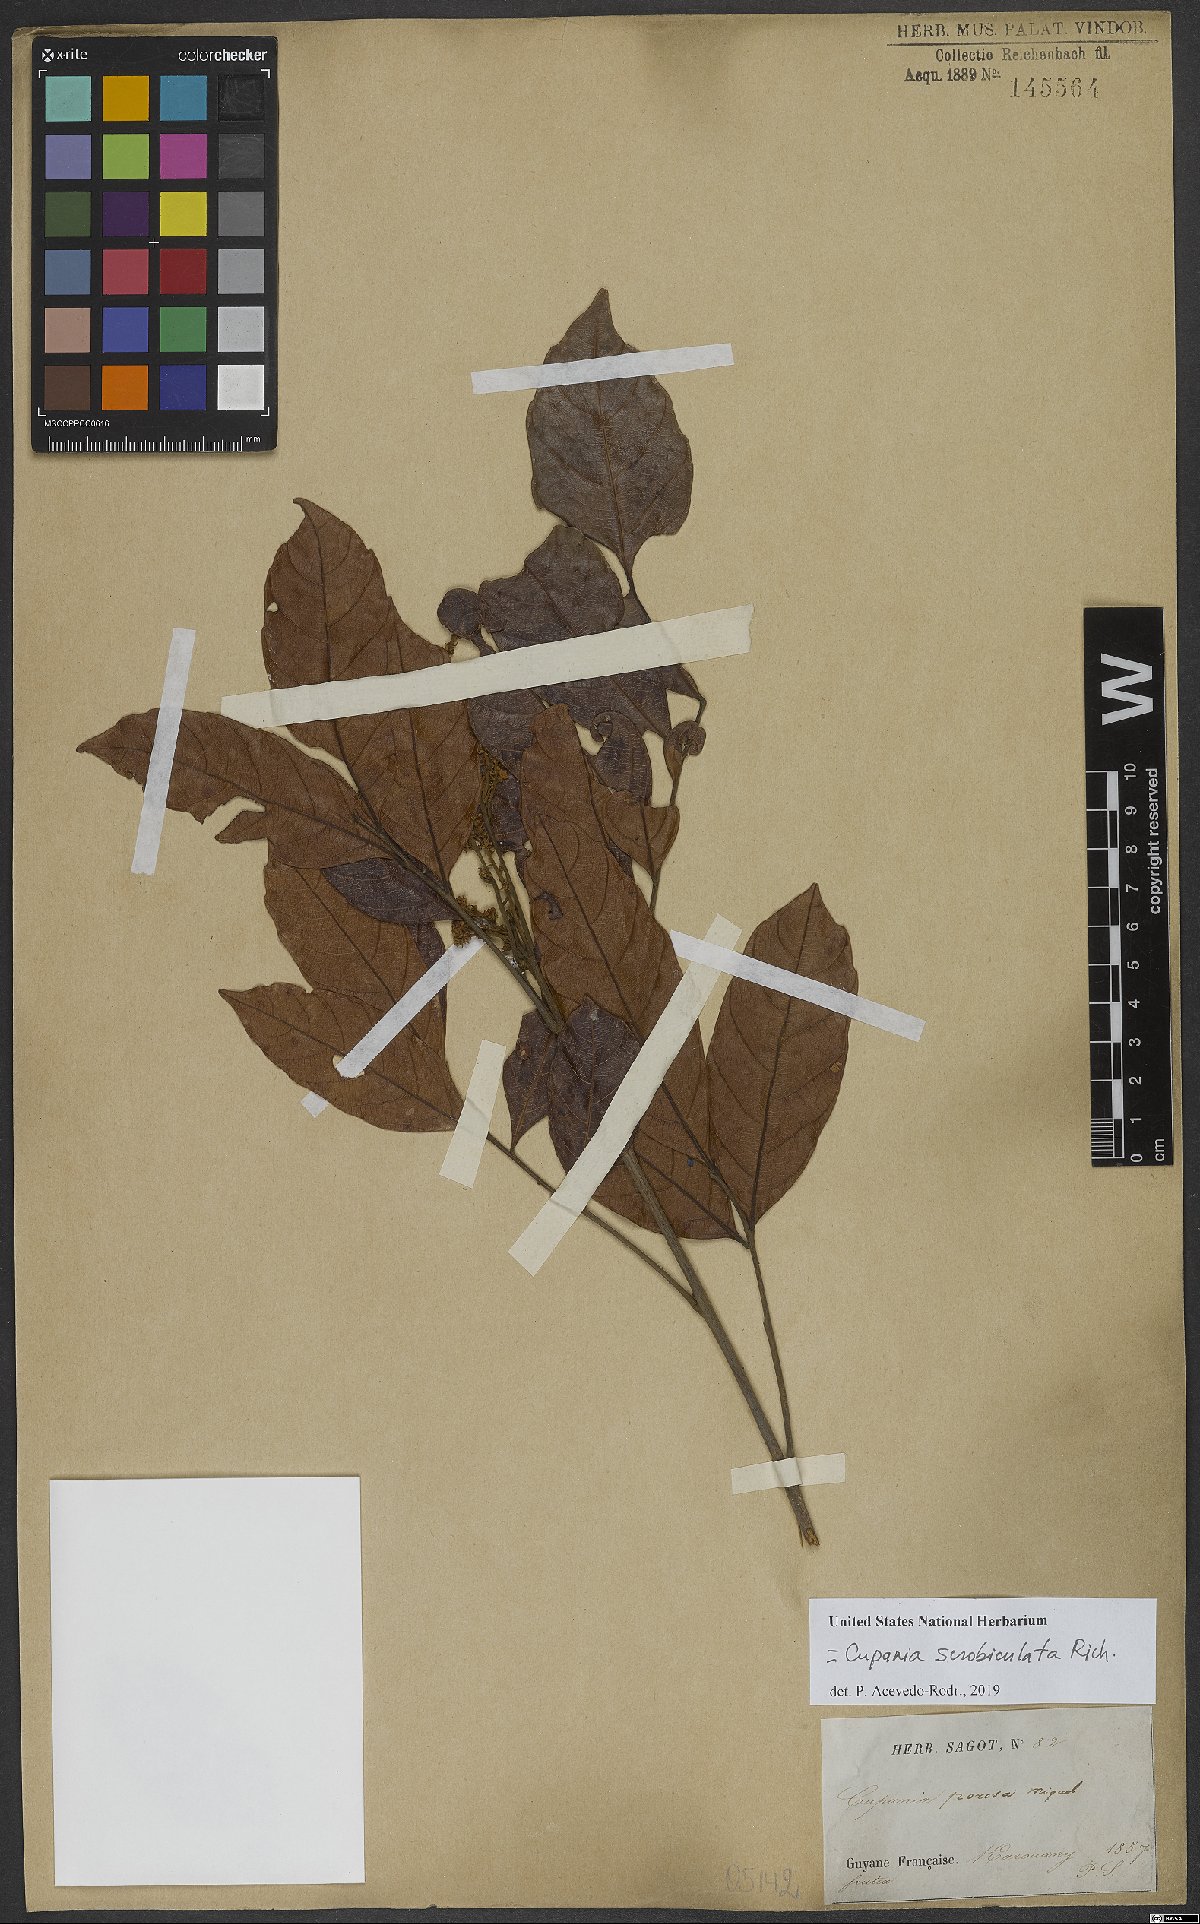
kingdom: Plantae
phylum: Tracheophyta
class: Magnoliopsida
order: Sapindales
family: Sapindaceae
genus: Cupania
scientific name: Cupania scrobiculata
